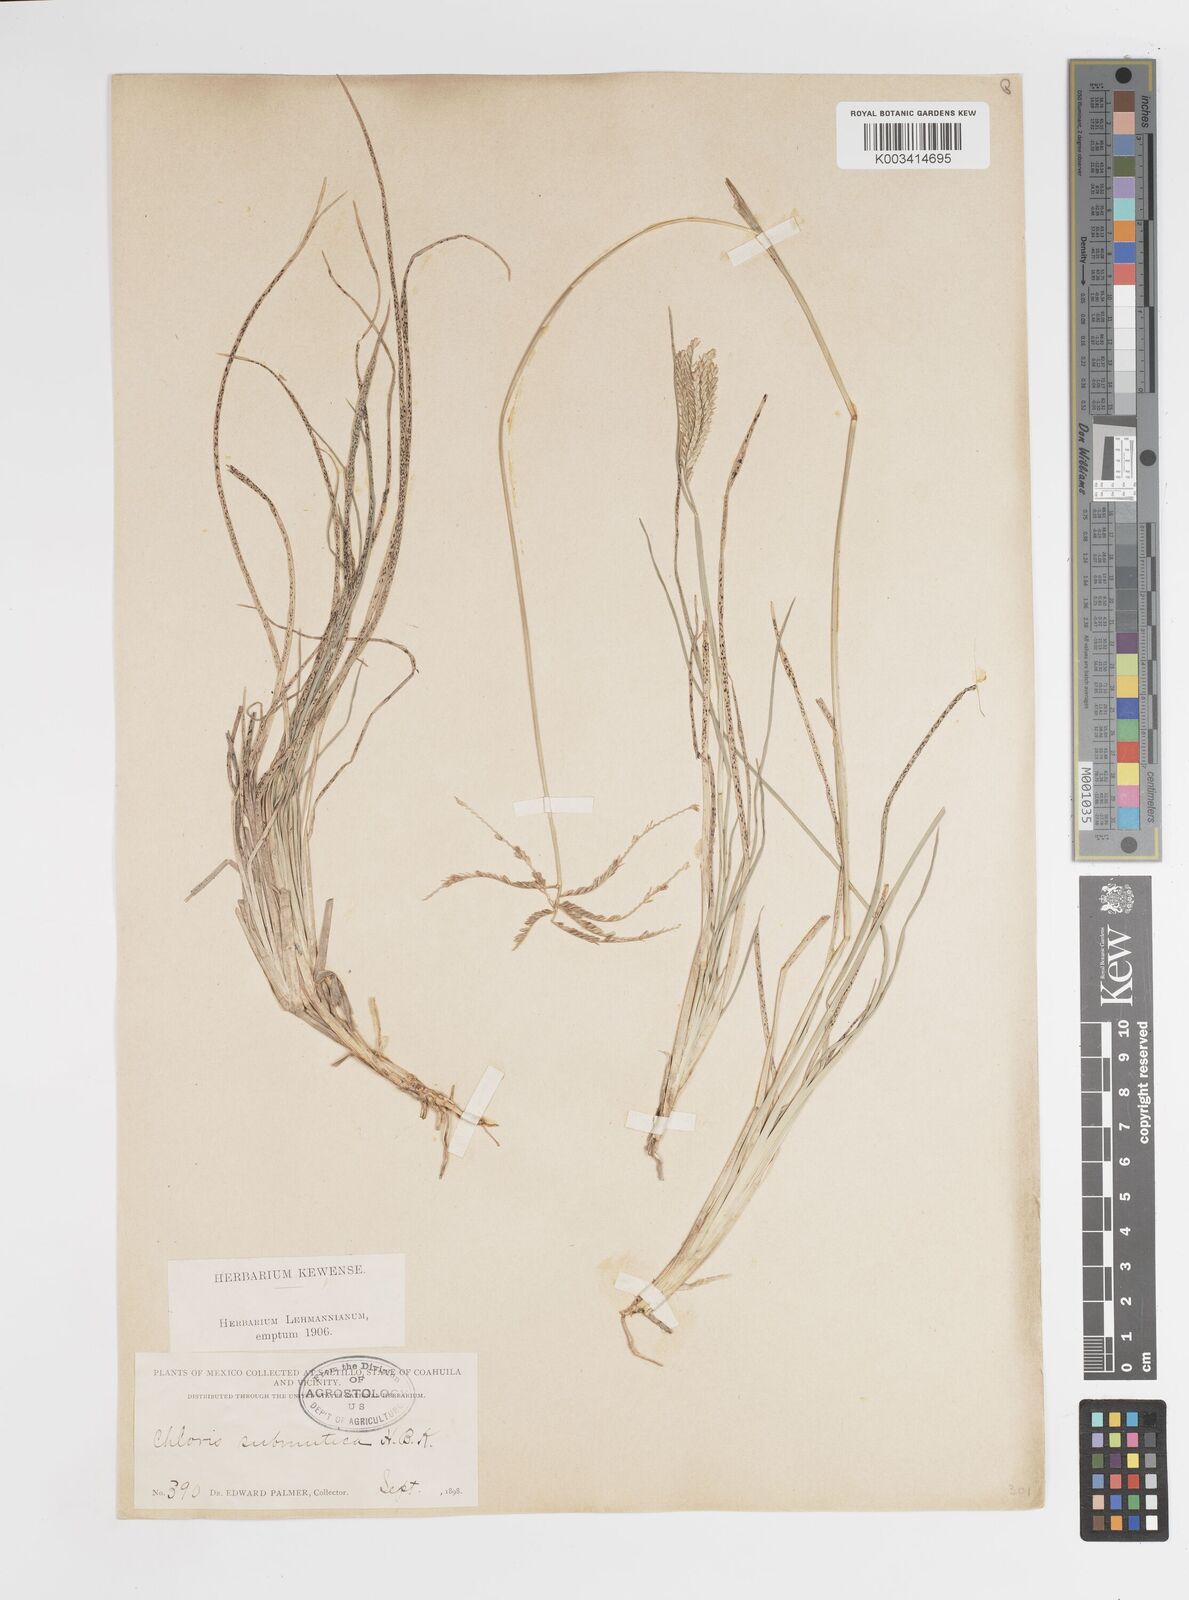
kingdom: Plantae
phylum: Tracheophyta
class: Liliopsida
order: Poales
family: Poaceae
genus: Chloris
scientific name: Chloris submutica
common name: Mexican windmill grass
